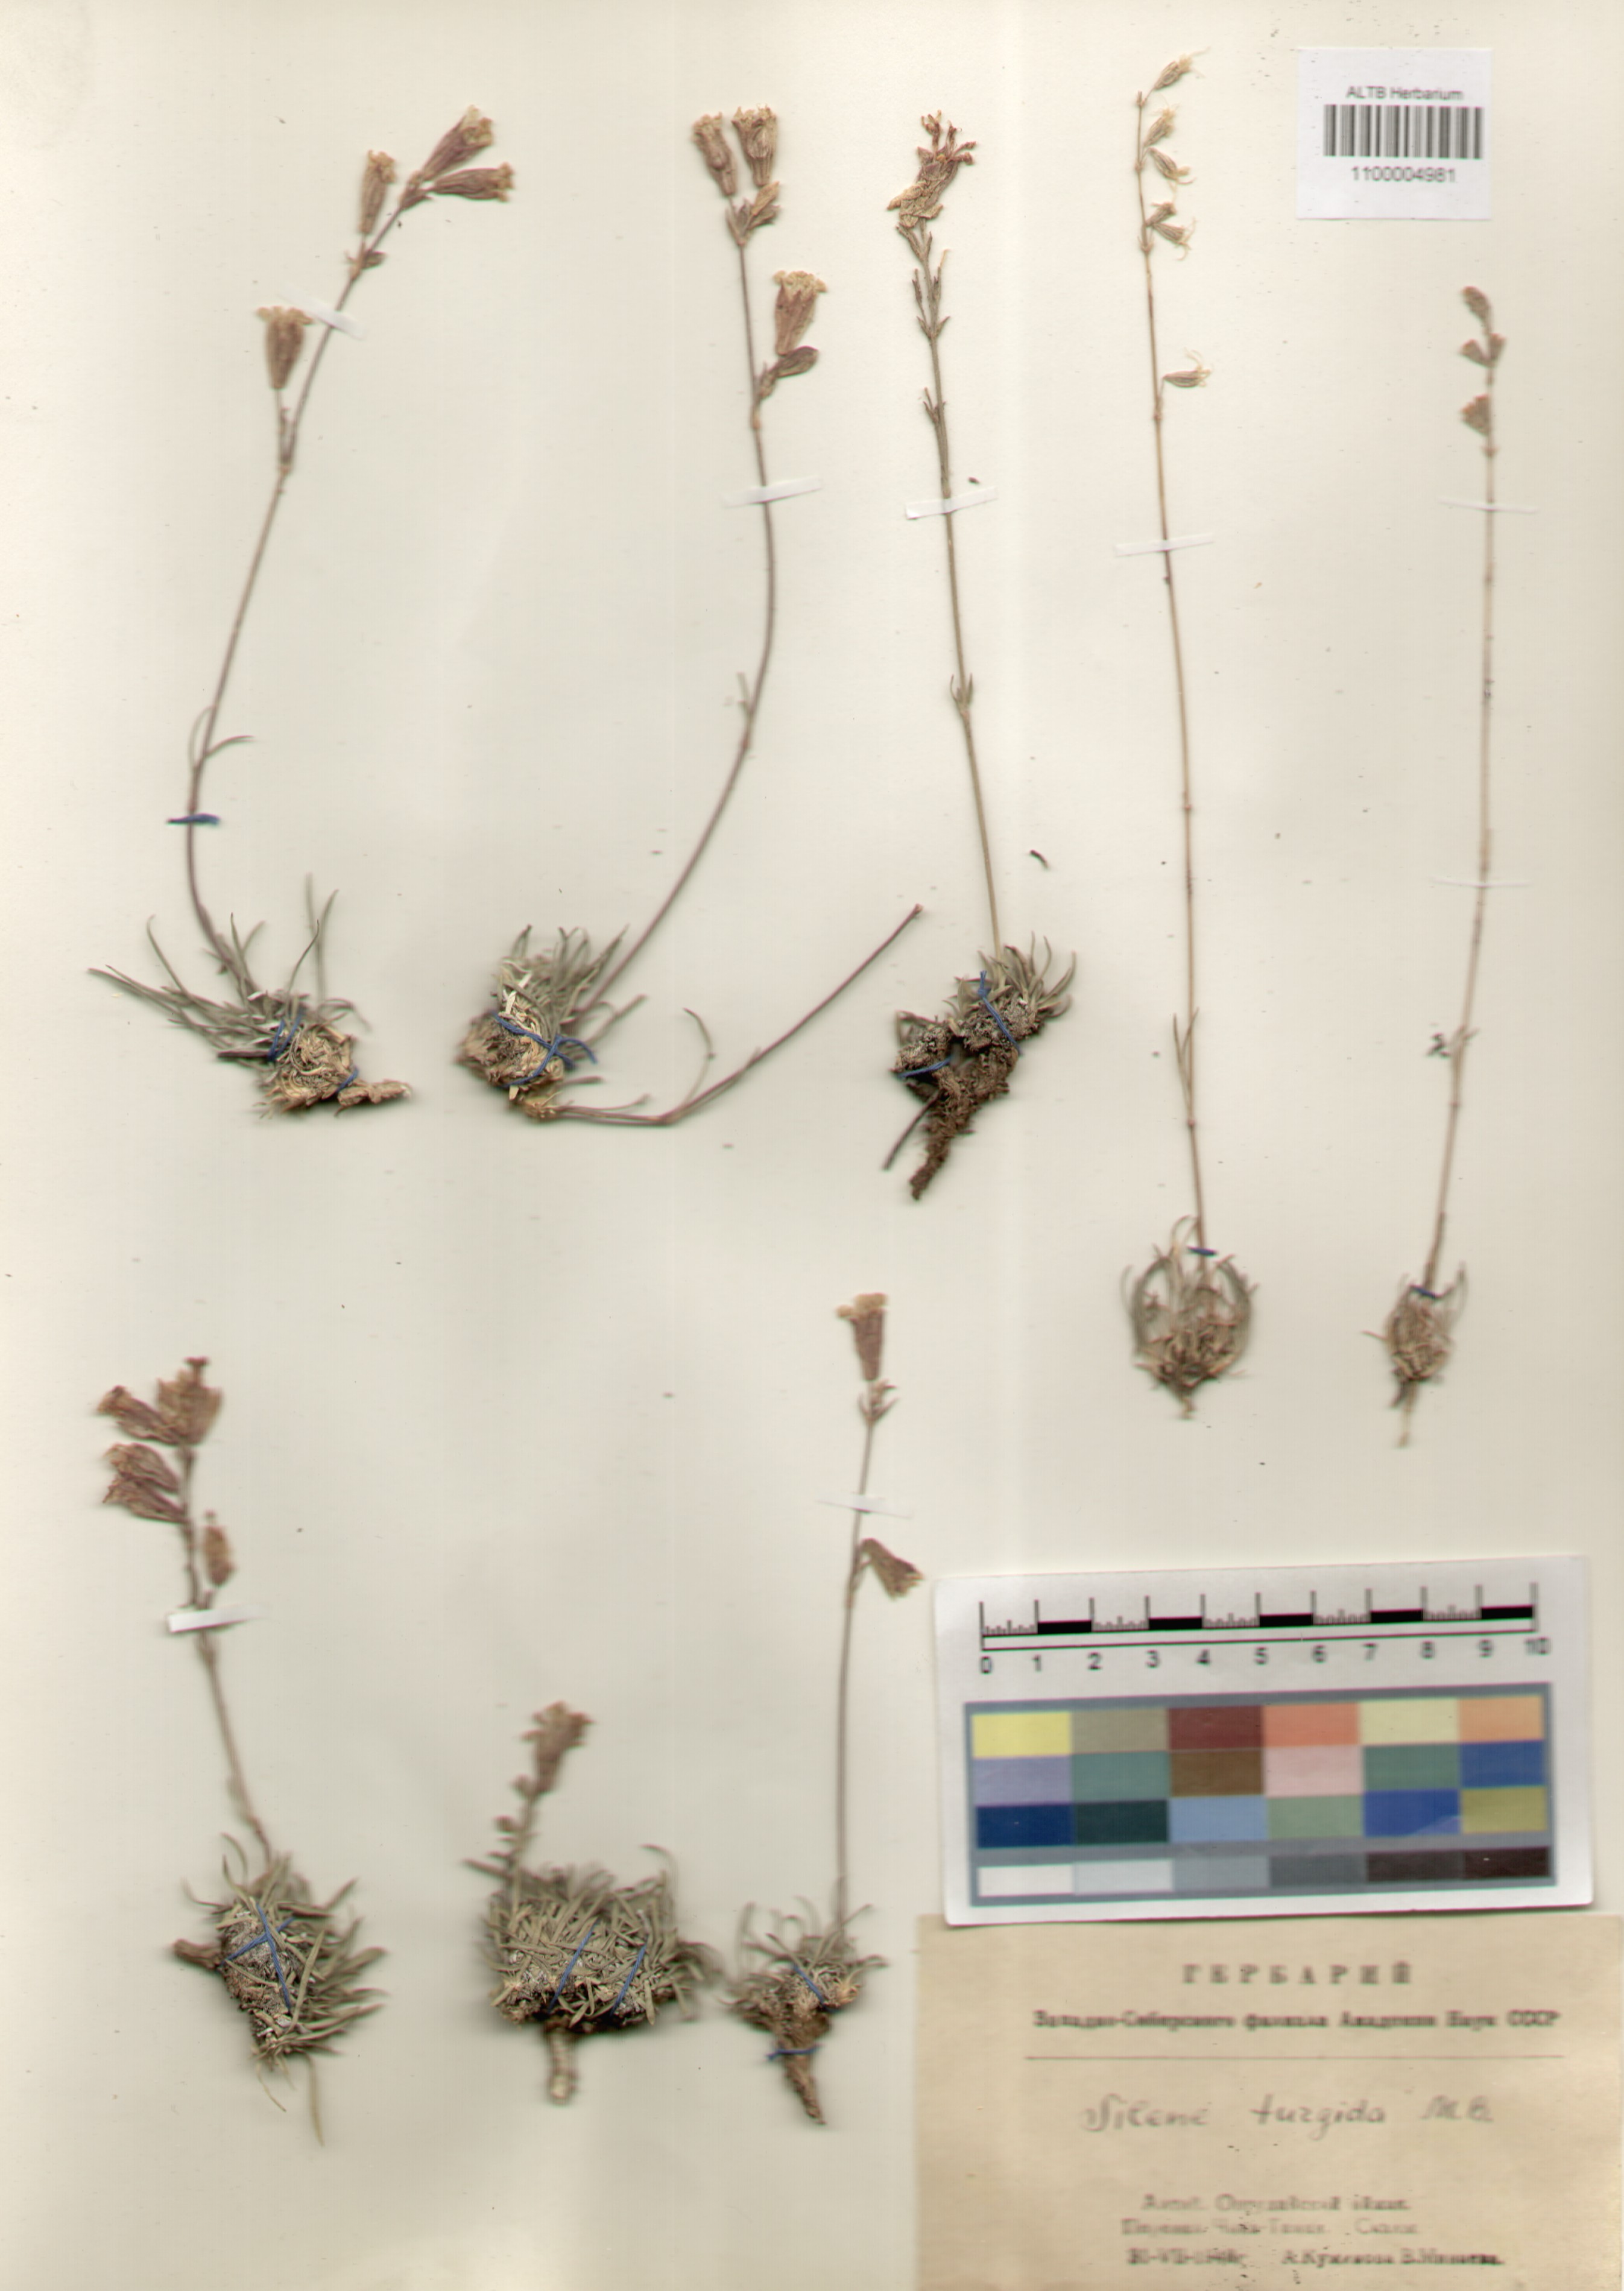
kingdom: Plantae
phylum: Tracheophyta
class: Magnoliopsida
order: Caryophyllales
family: Caryophyllaceae
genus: Silene
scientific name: Silene turgida
